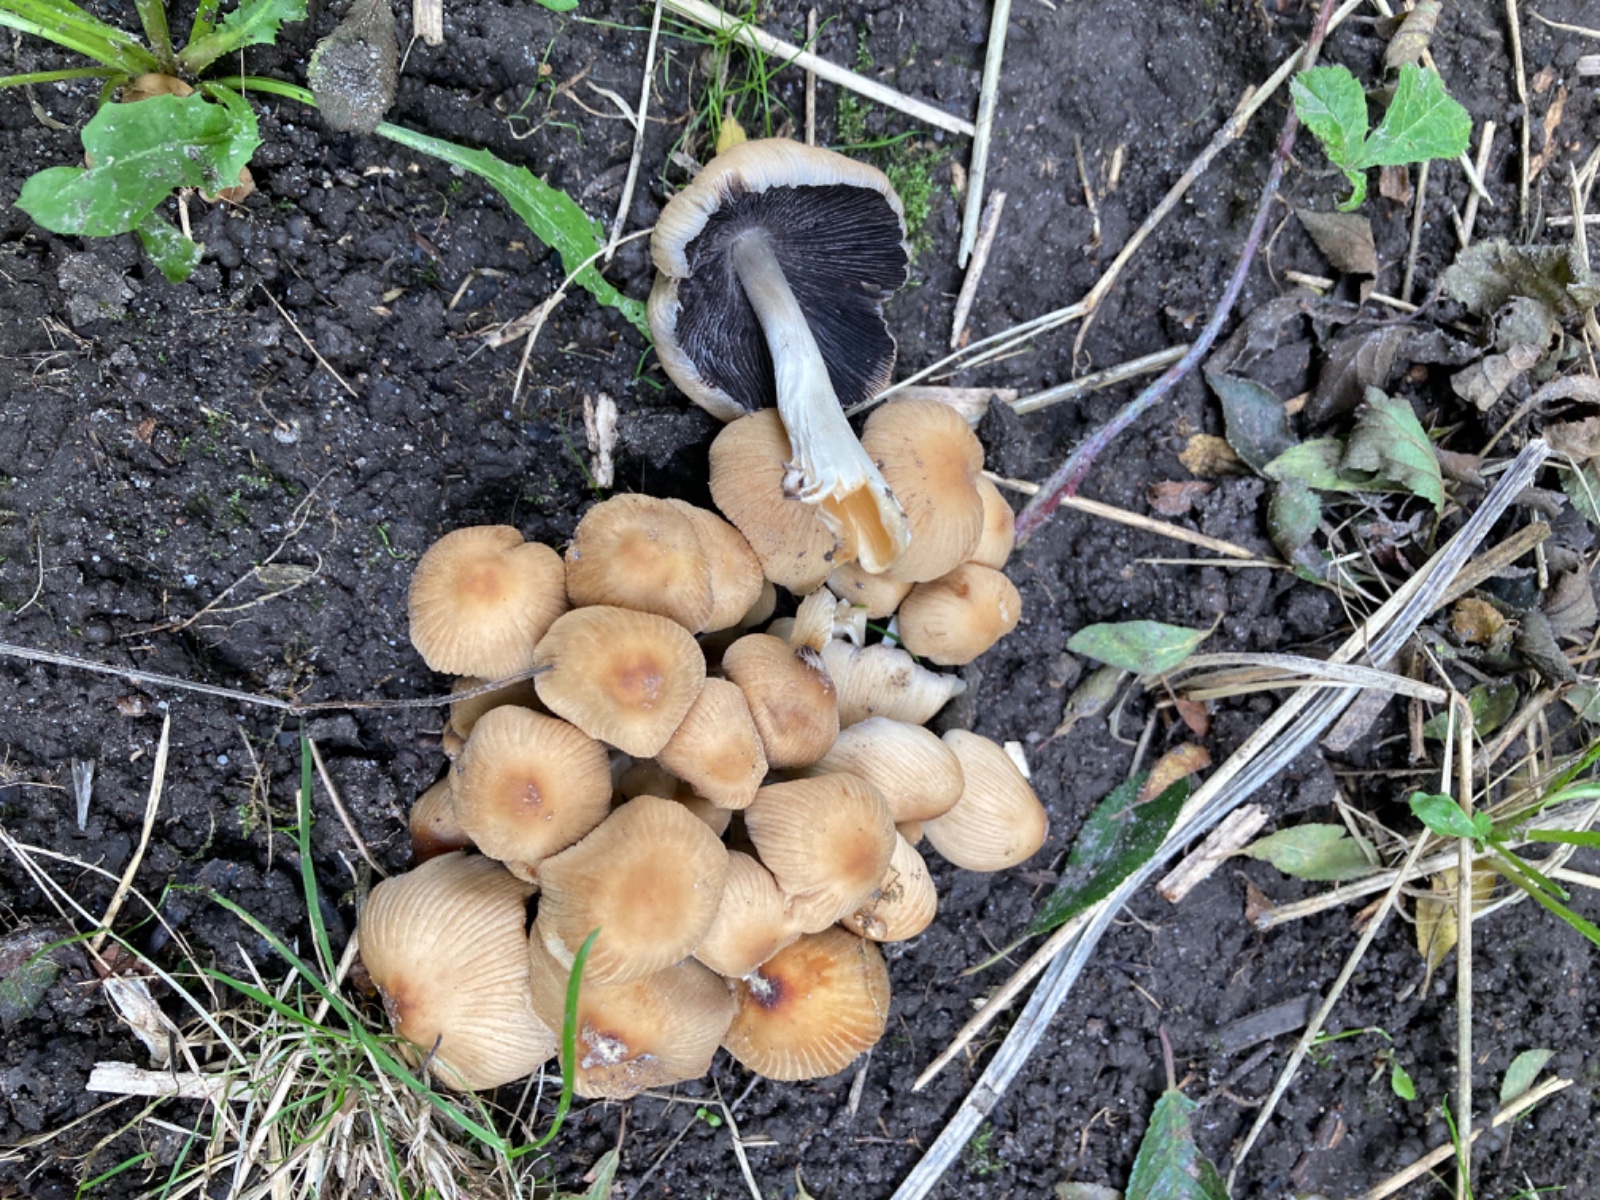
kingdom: Fungi
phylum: Basidiomycota
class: Agaricomycetes
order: Agaricales
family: Psathyrellaceae
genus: Coprinellus
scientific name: Coprinellus micaceus
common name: glimmer-blækhat
